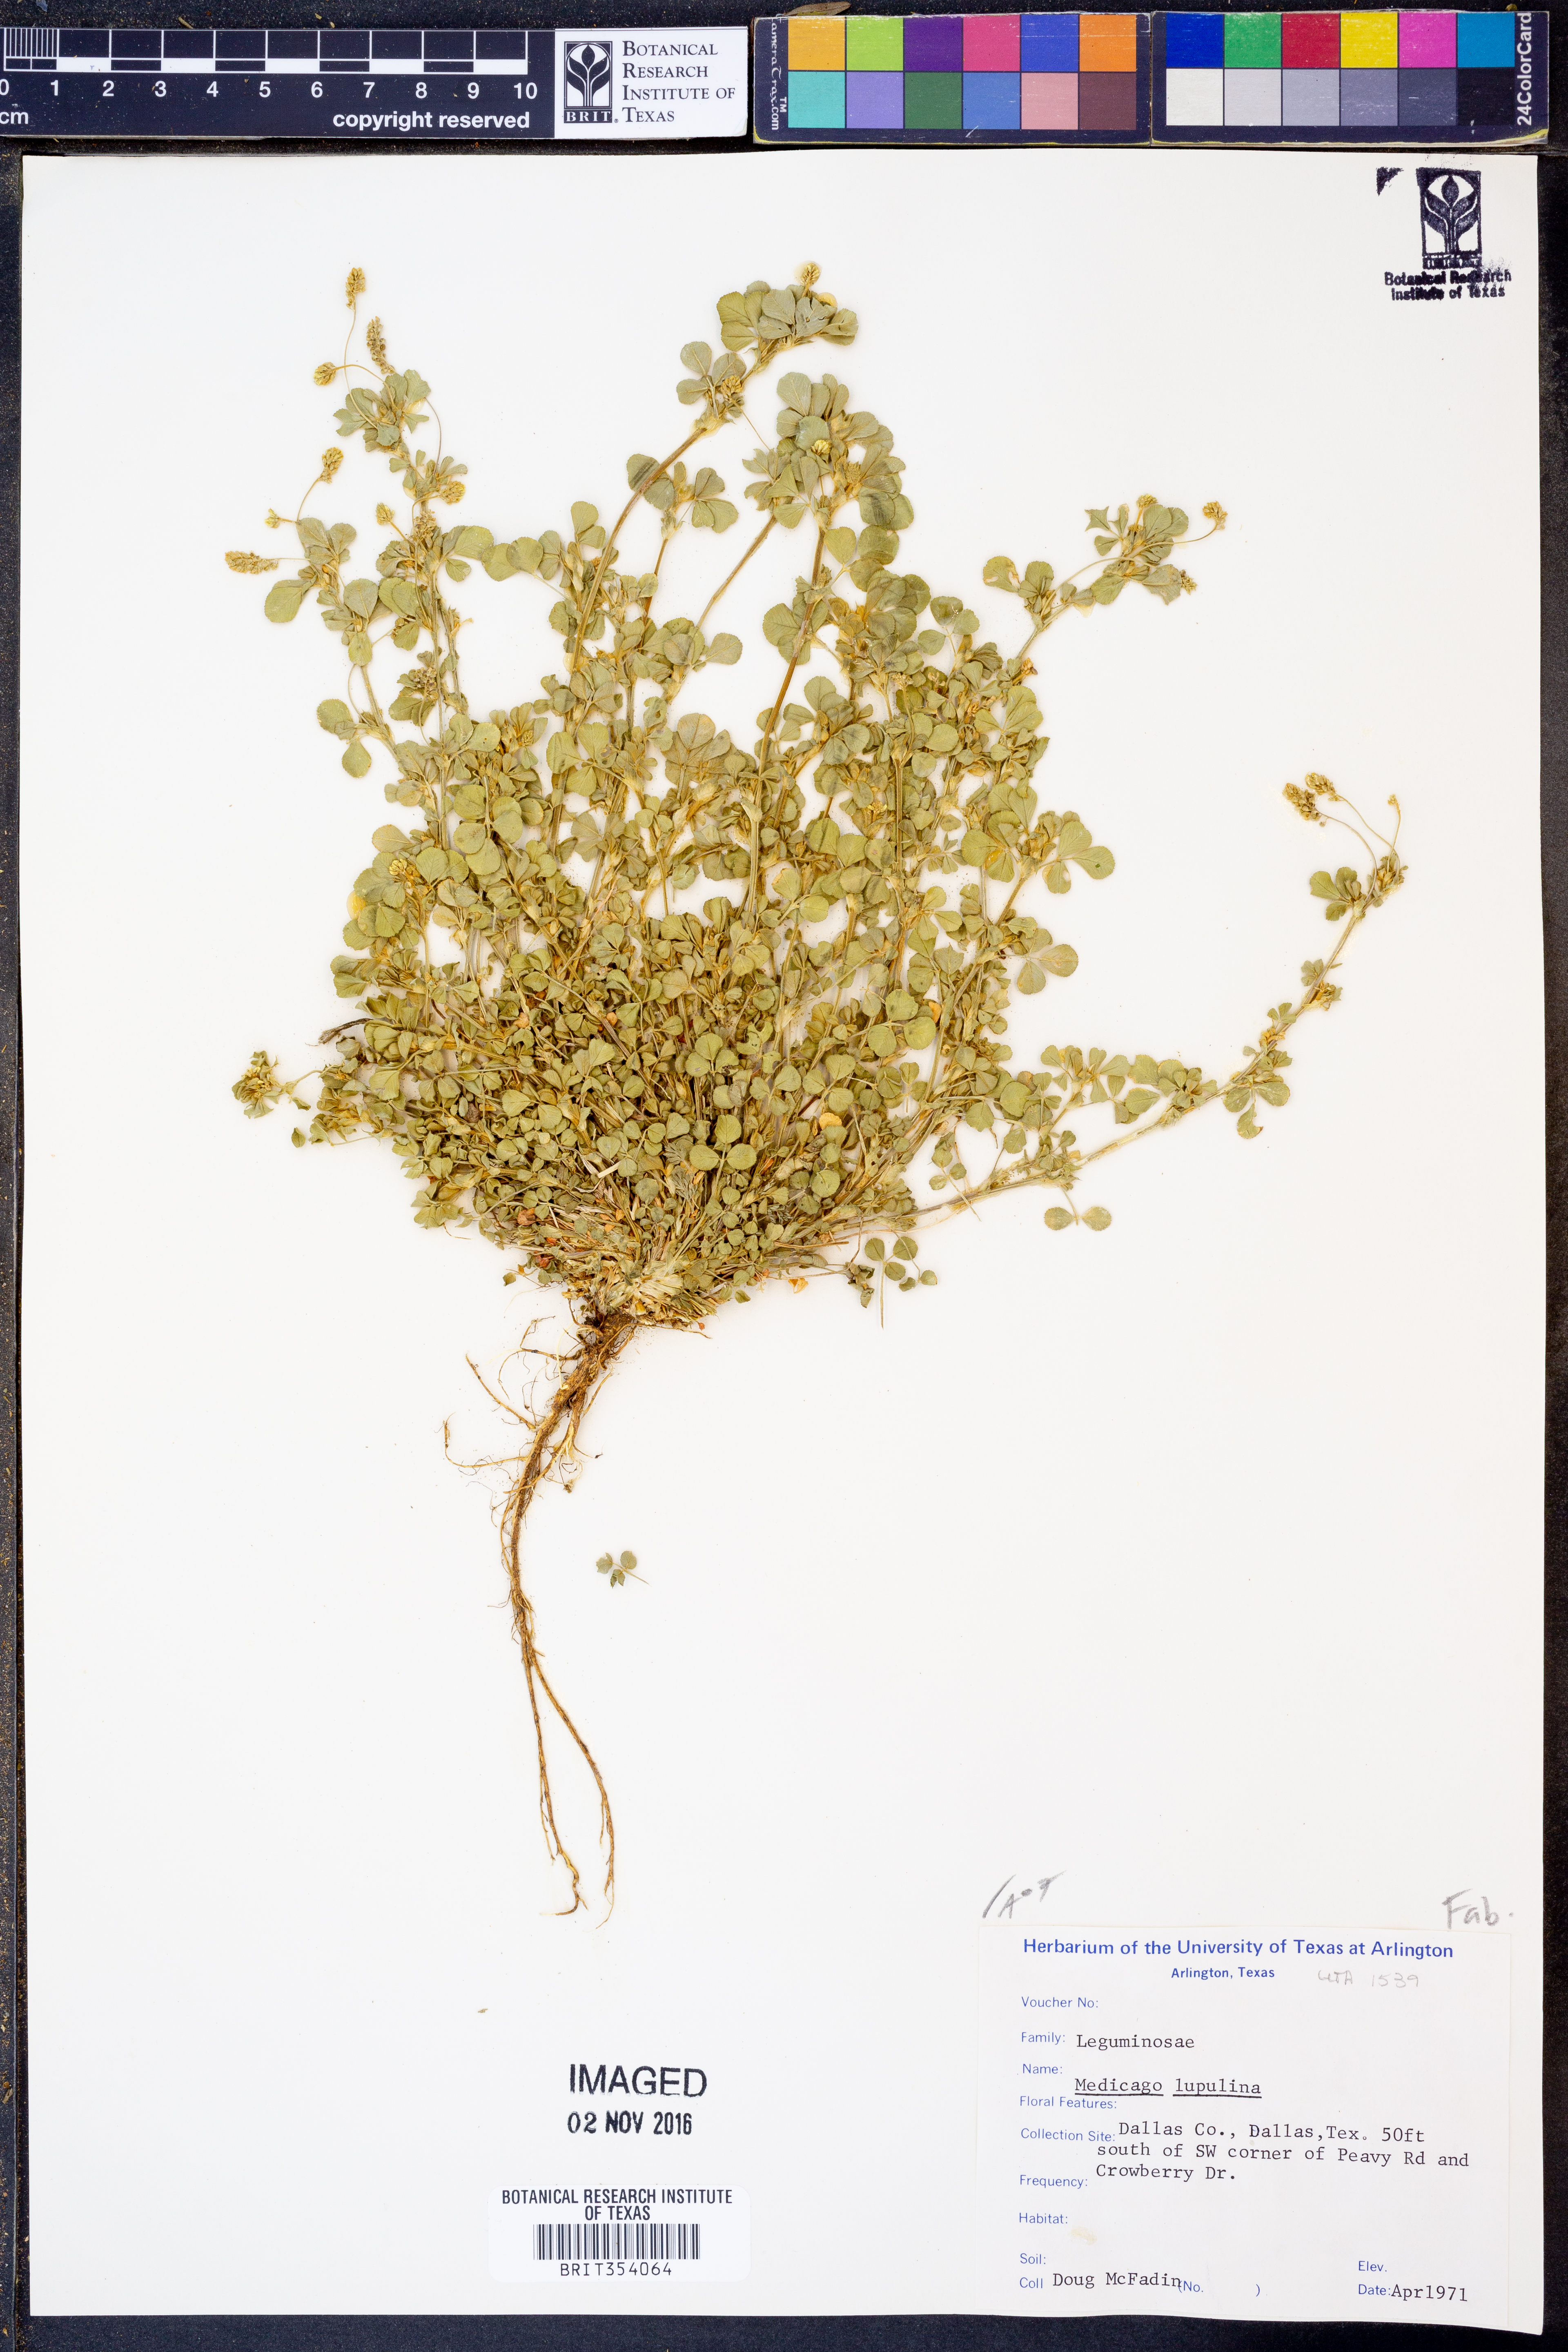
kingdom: Plantae
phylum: Tracheophyta
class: Magnoliopsida
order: Fabales
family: Fabaceae
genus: Medicago
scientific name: Medicago lupulina
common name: Black medick
